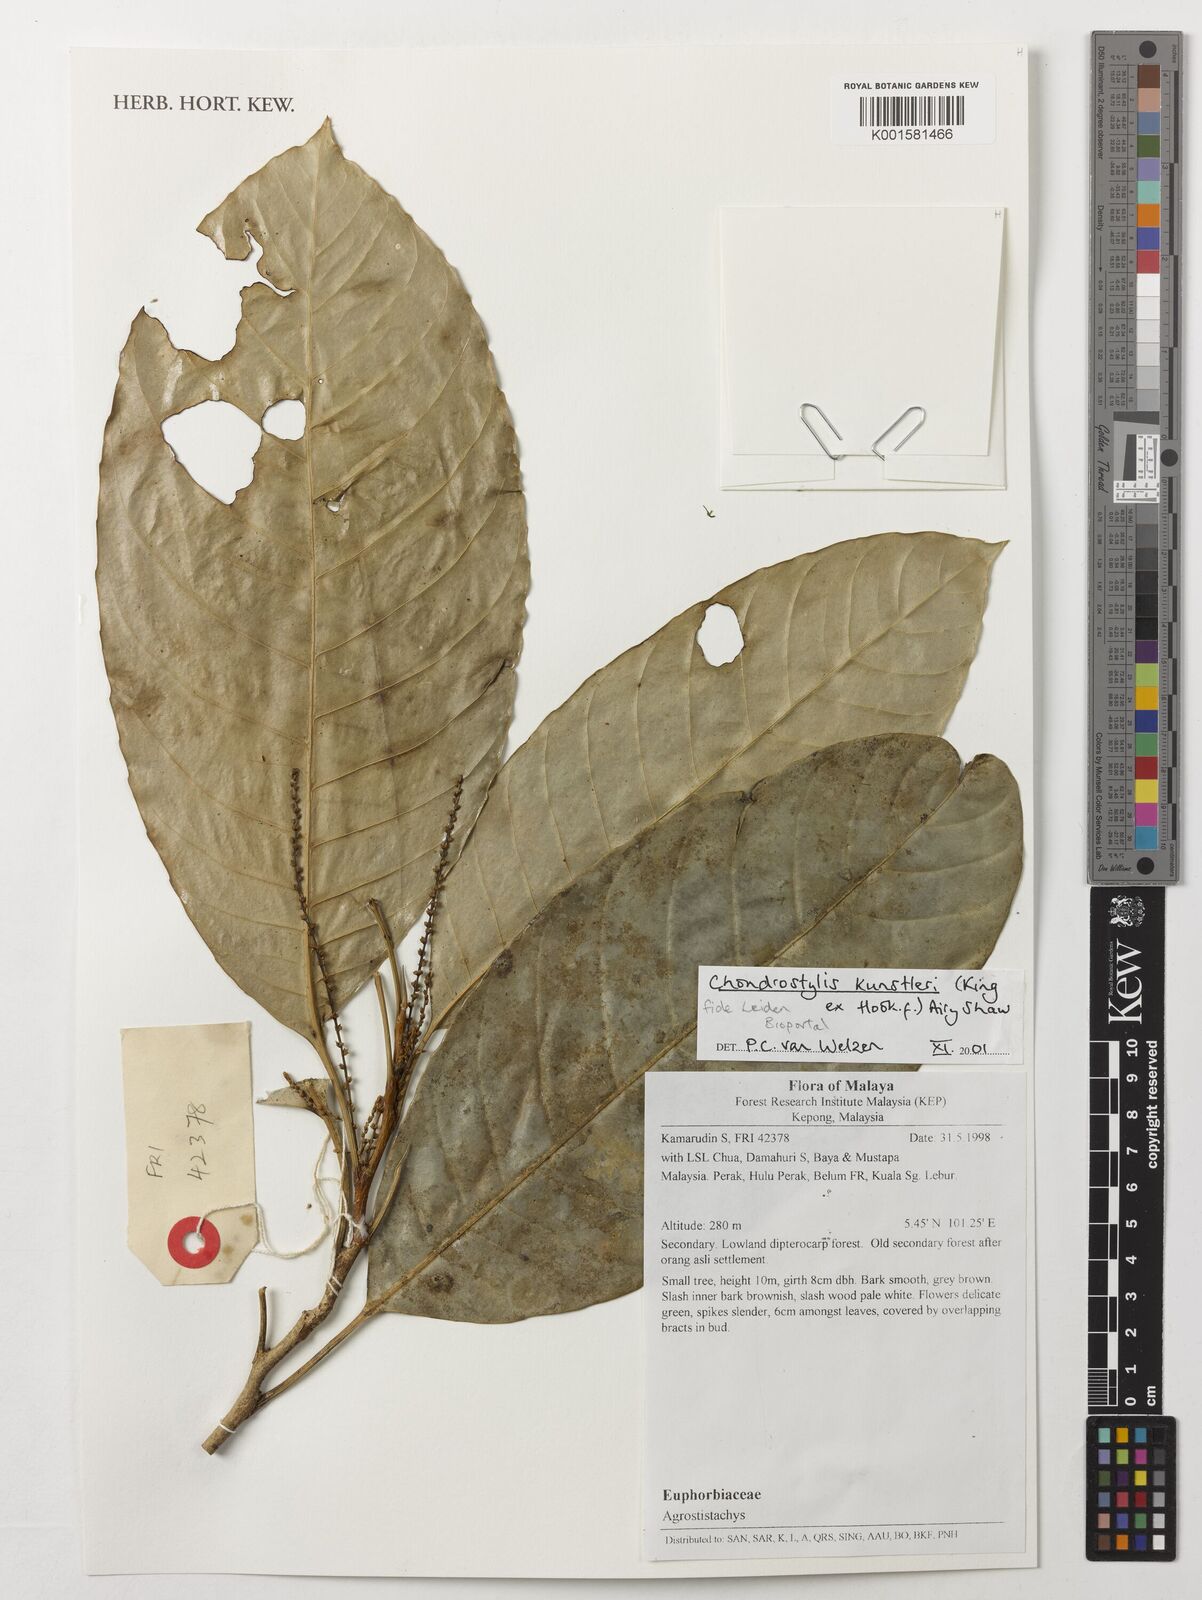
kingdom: Plantae
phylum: Tracheophyta
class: Magnoliopsida
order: Malpighiales
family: Euphorbiaceae
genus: Chondrostylis
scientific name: Chondrostylis kunstleri
